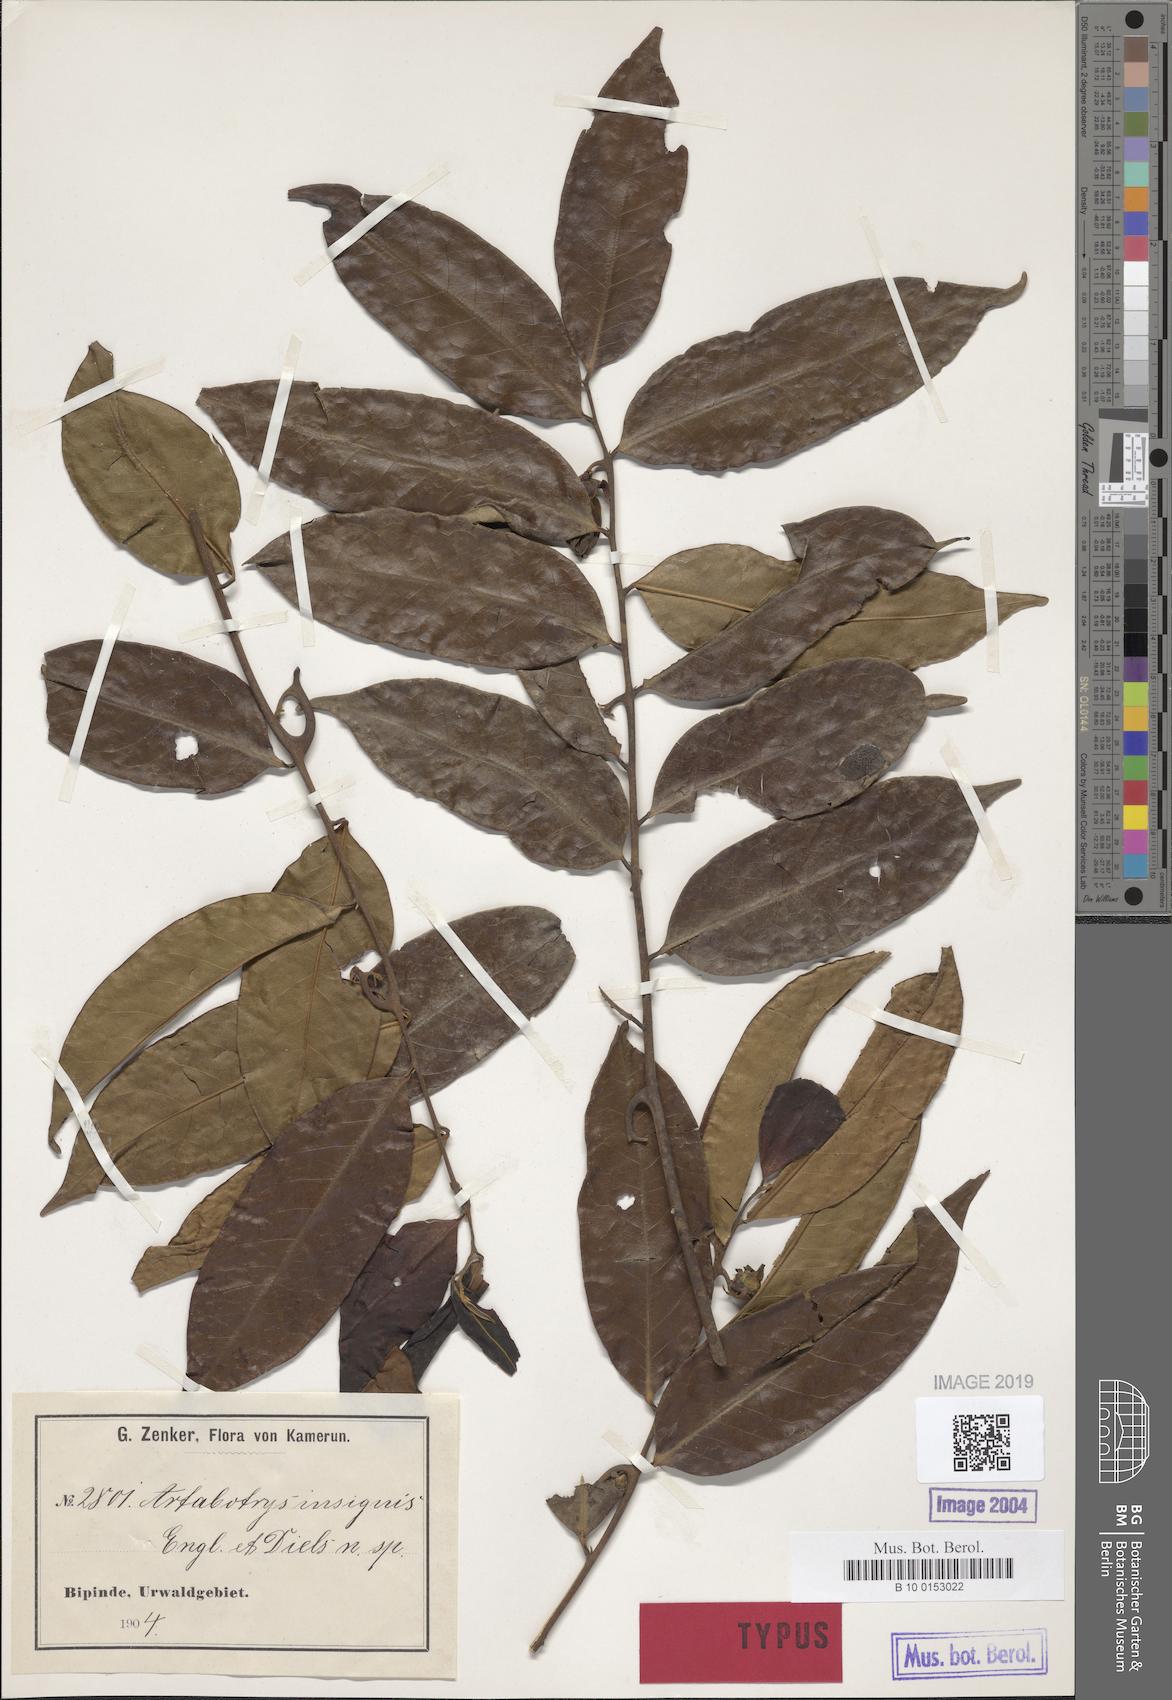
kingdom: Plantae
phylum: Tracheophyta
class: Magnoliopsida
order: Magnoliales
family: Annonaceae
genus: Artabotrys
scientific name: Artabotrys insignis
